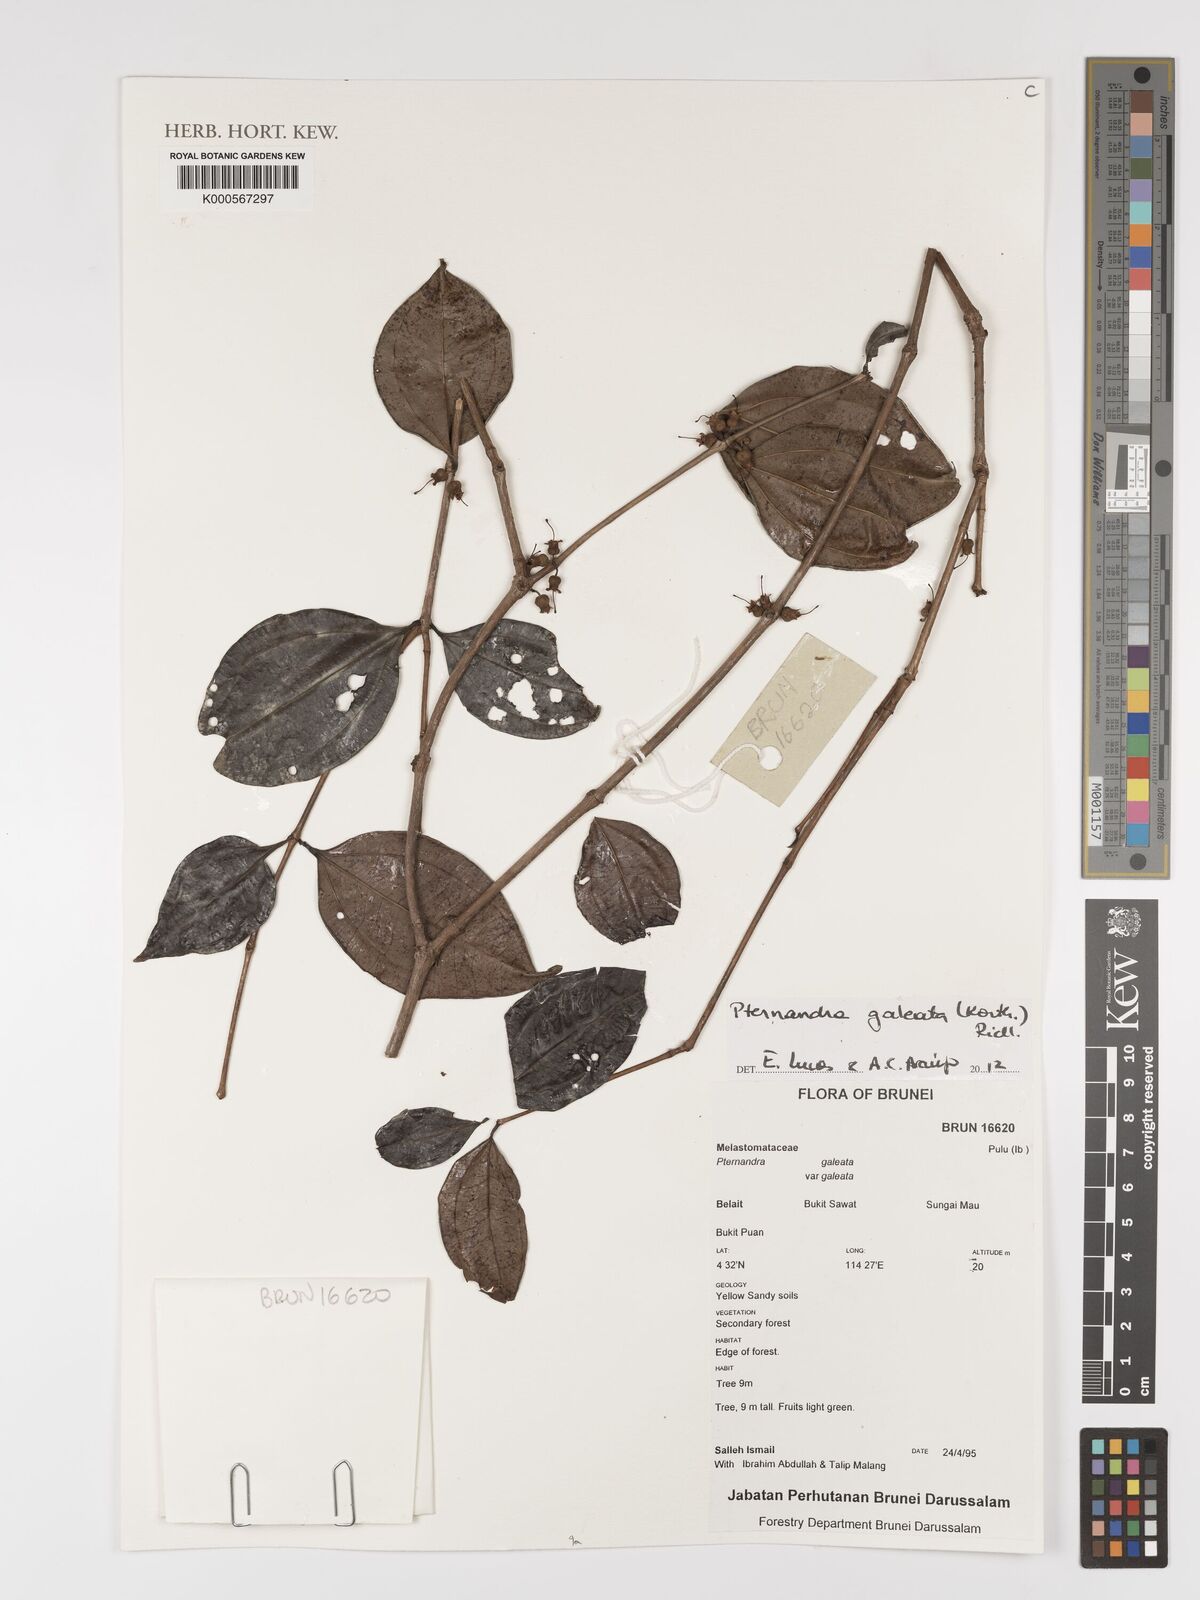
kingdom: Plantae
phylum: Tracheophyta
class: Magnoliopsida
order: Myrtales
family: Melastomataceae
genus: Pternandra
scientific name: Pternandra galeata
